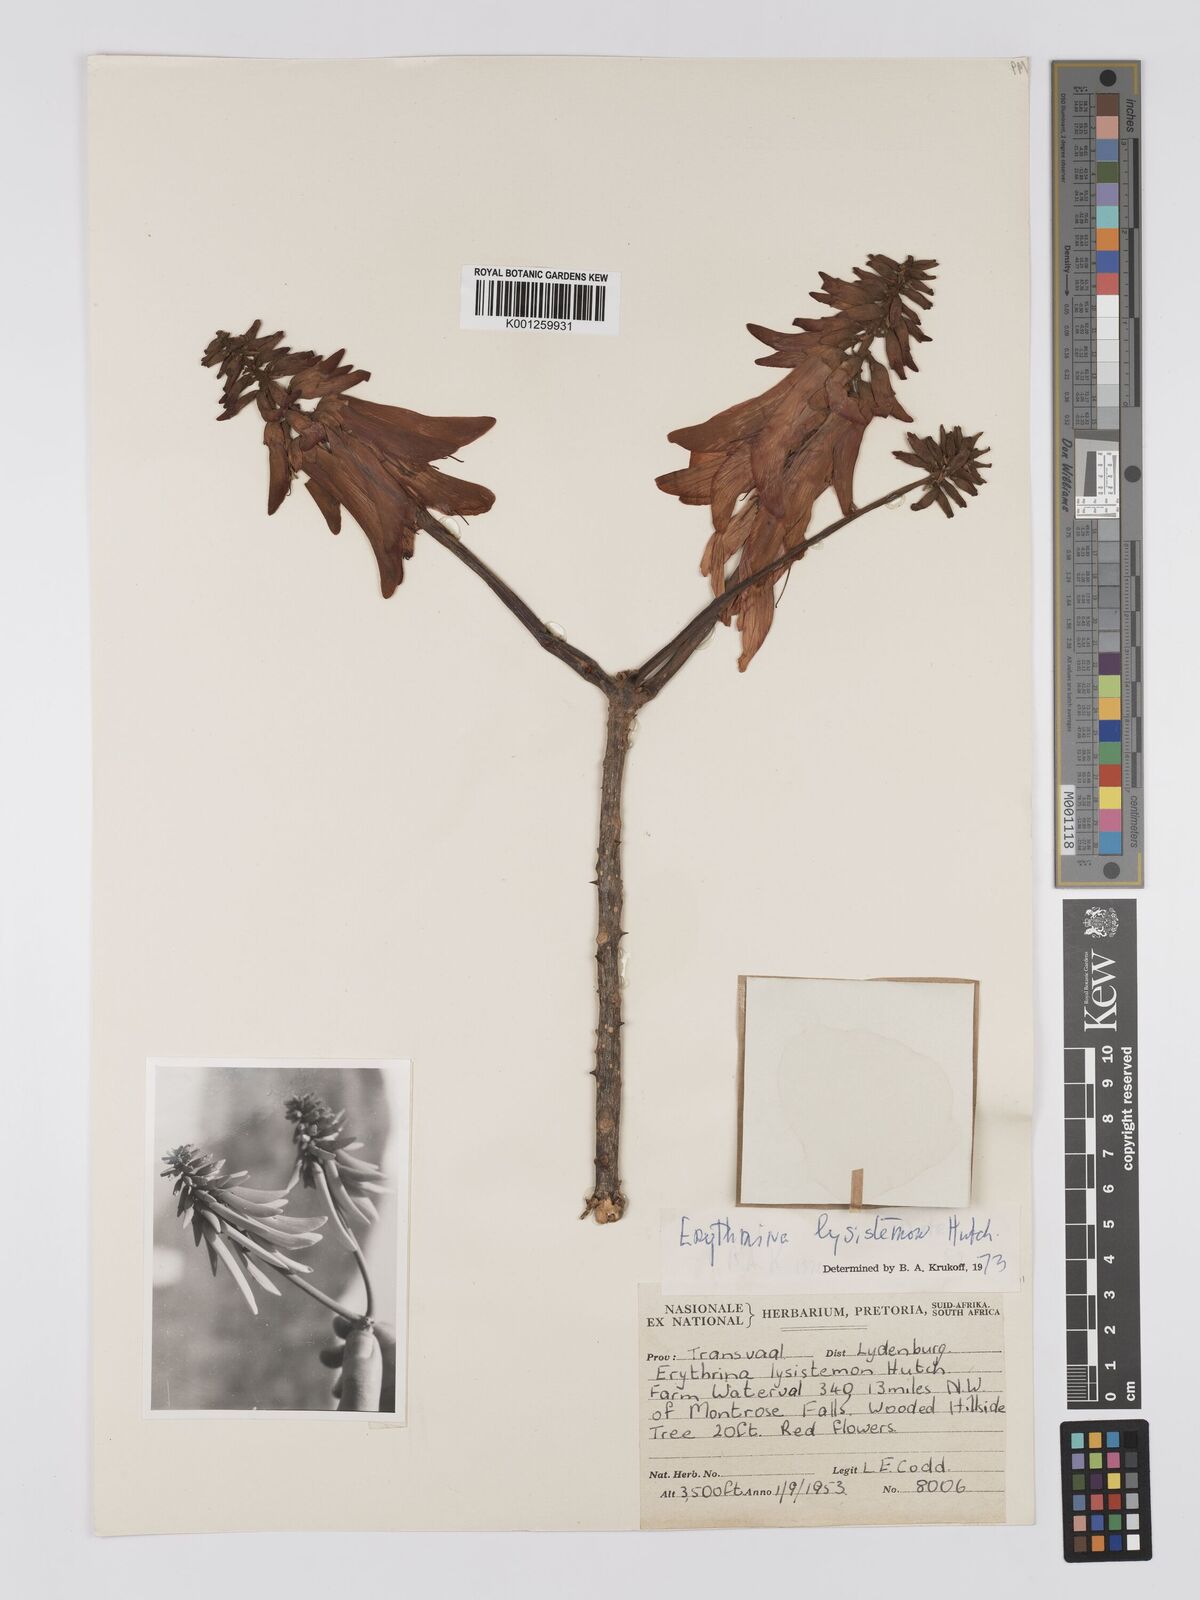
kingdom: Plantae
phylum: Tracheophyta
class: Magnoliopsida
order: Fabales
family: Fabaceae
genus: Erythrina
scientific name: Erythrina lysistemon
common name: Common coral tree
